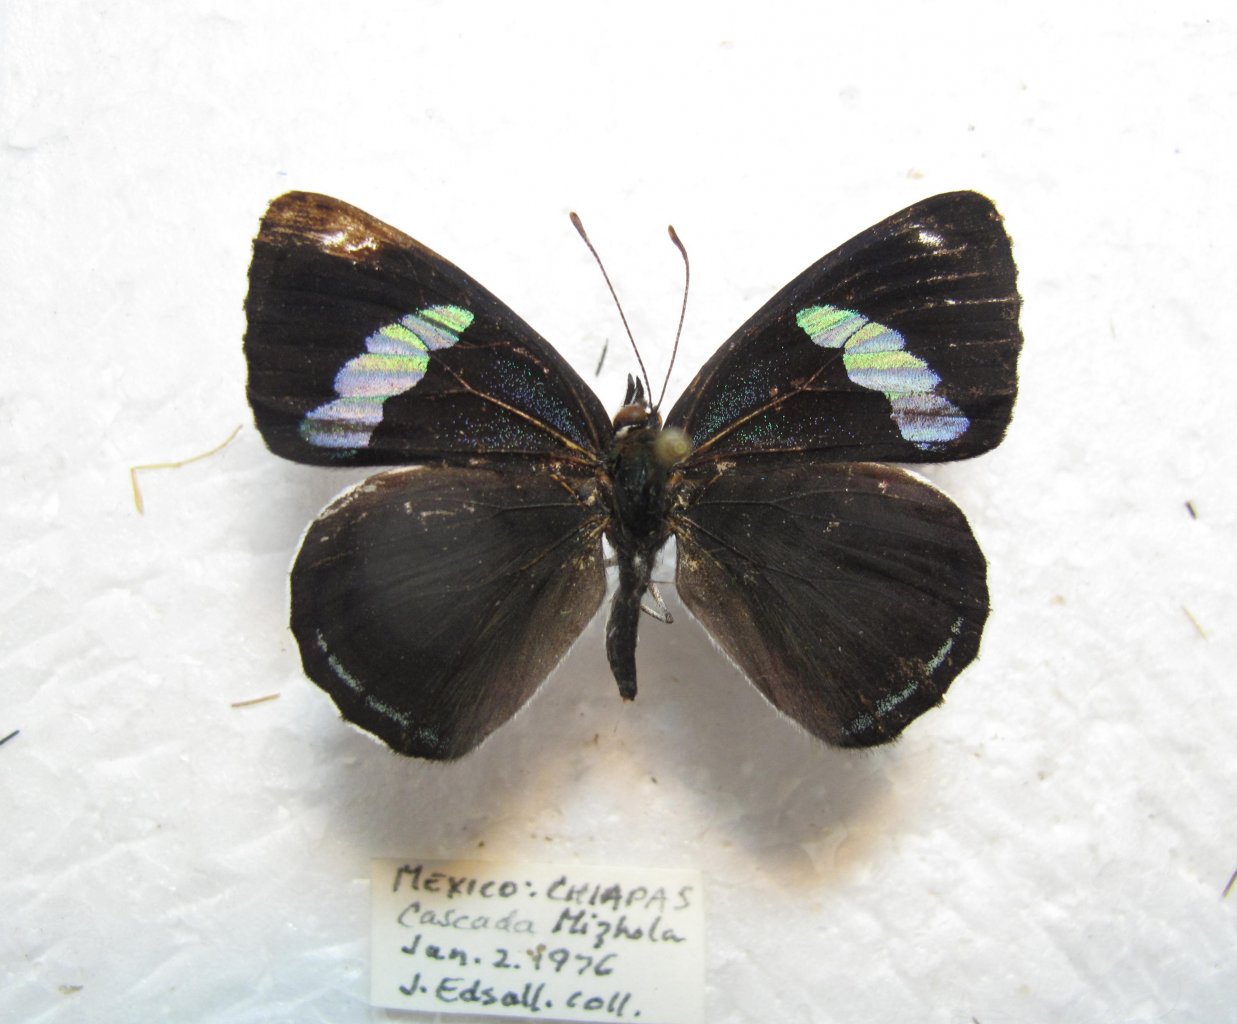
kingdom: Animalia
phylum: Arthropoda
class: Insecta
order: Lepidoptera
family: Nymphalidae
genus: Diaethria
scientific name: Diaethria anna
